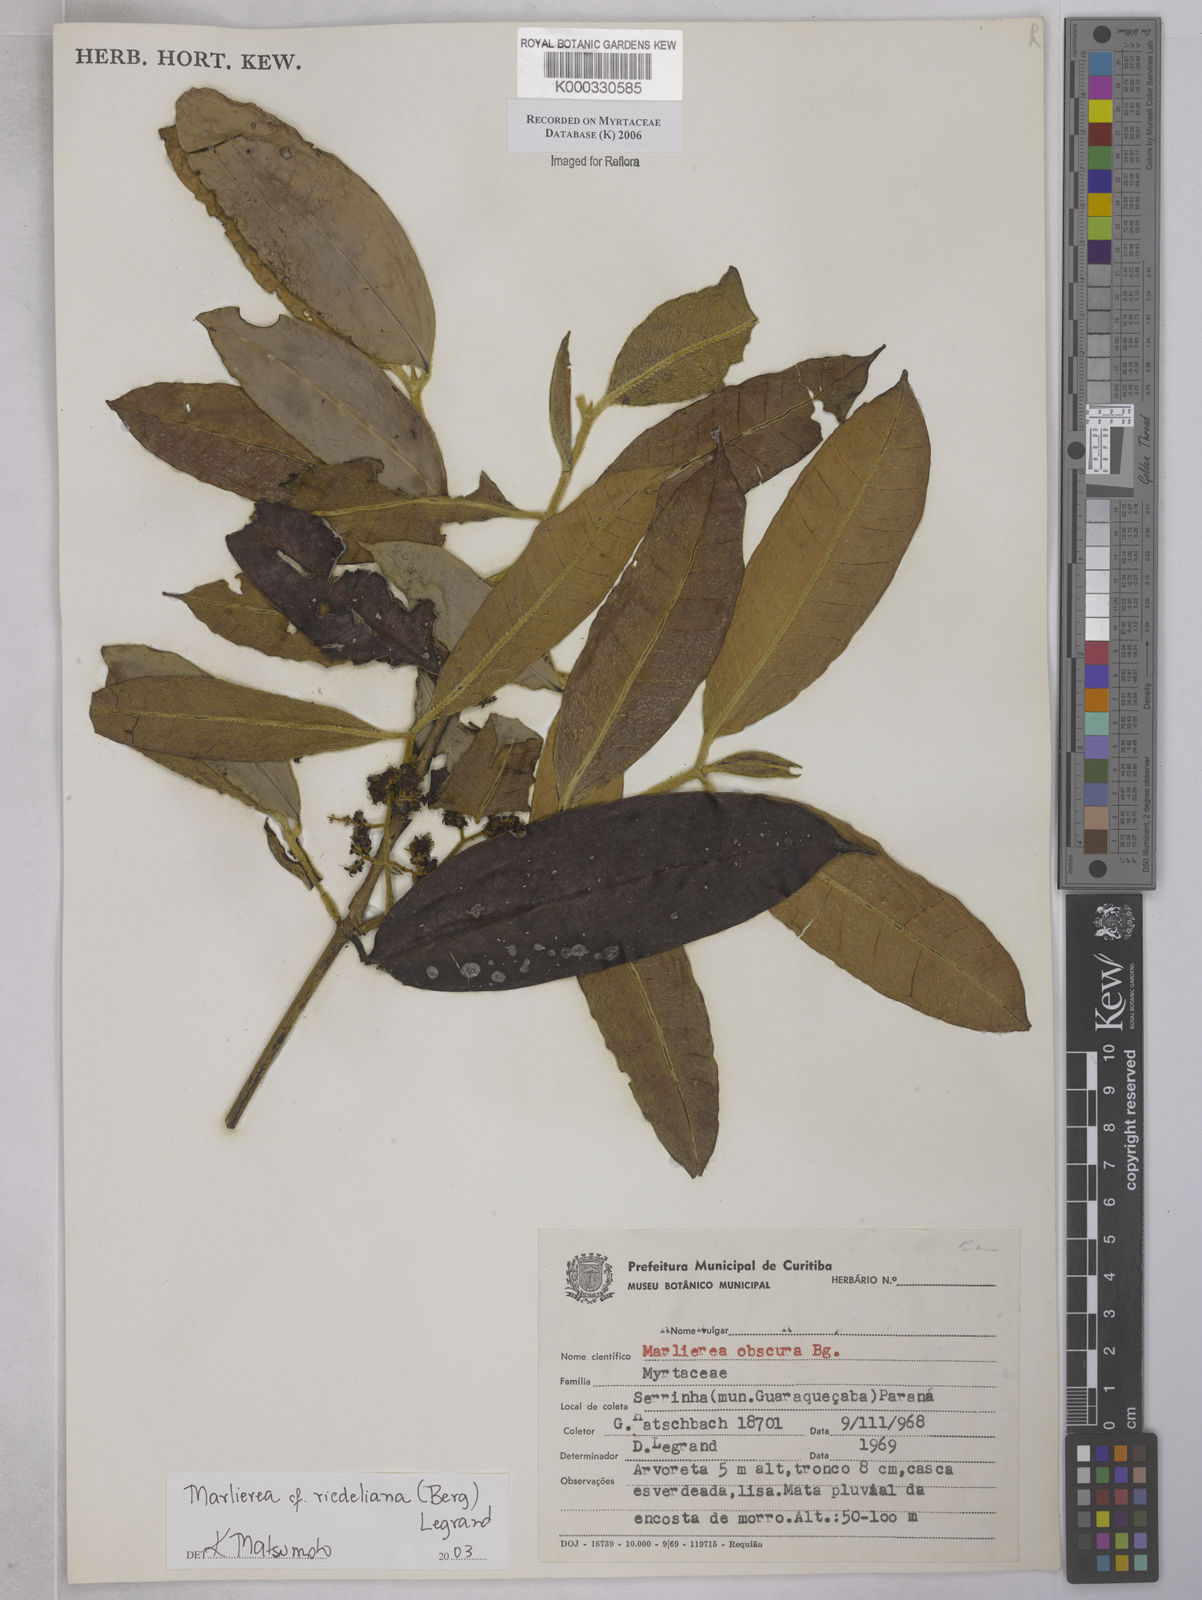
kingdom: Plantae
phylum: Tracheophyta
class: Magnoliopsida
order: Myrtales
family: Myrtaceae
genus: Myrcia
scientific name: Myrcia neoriedeliana
